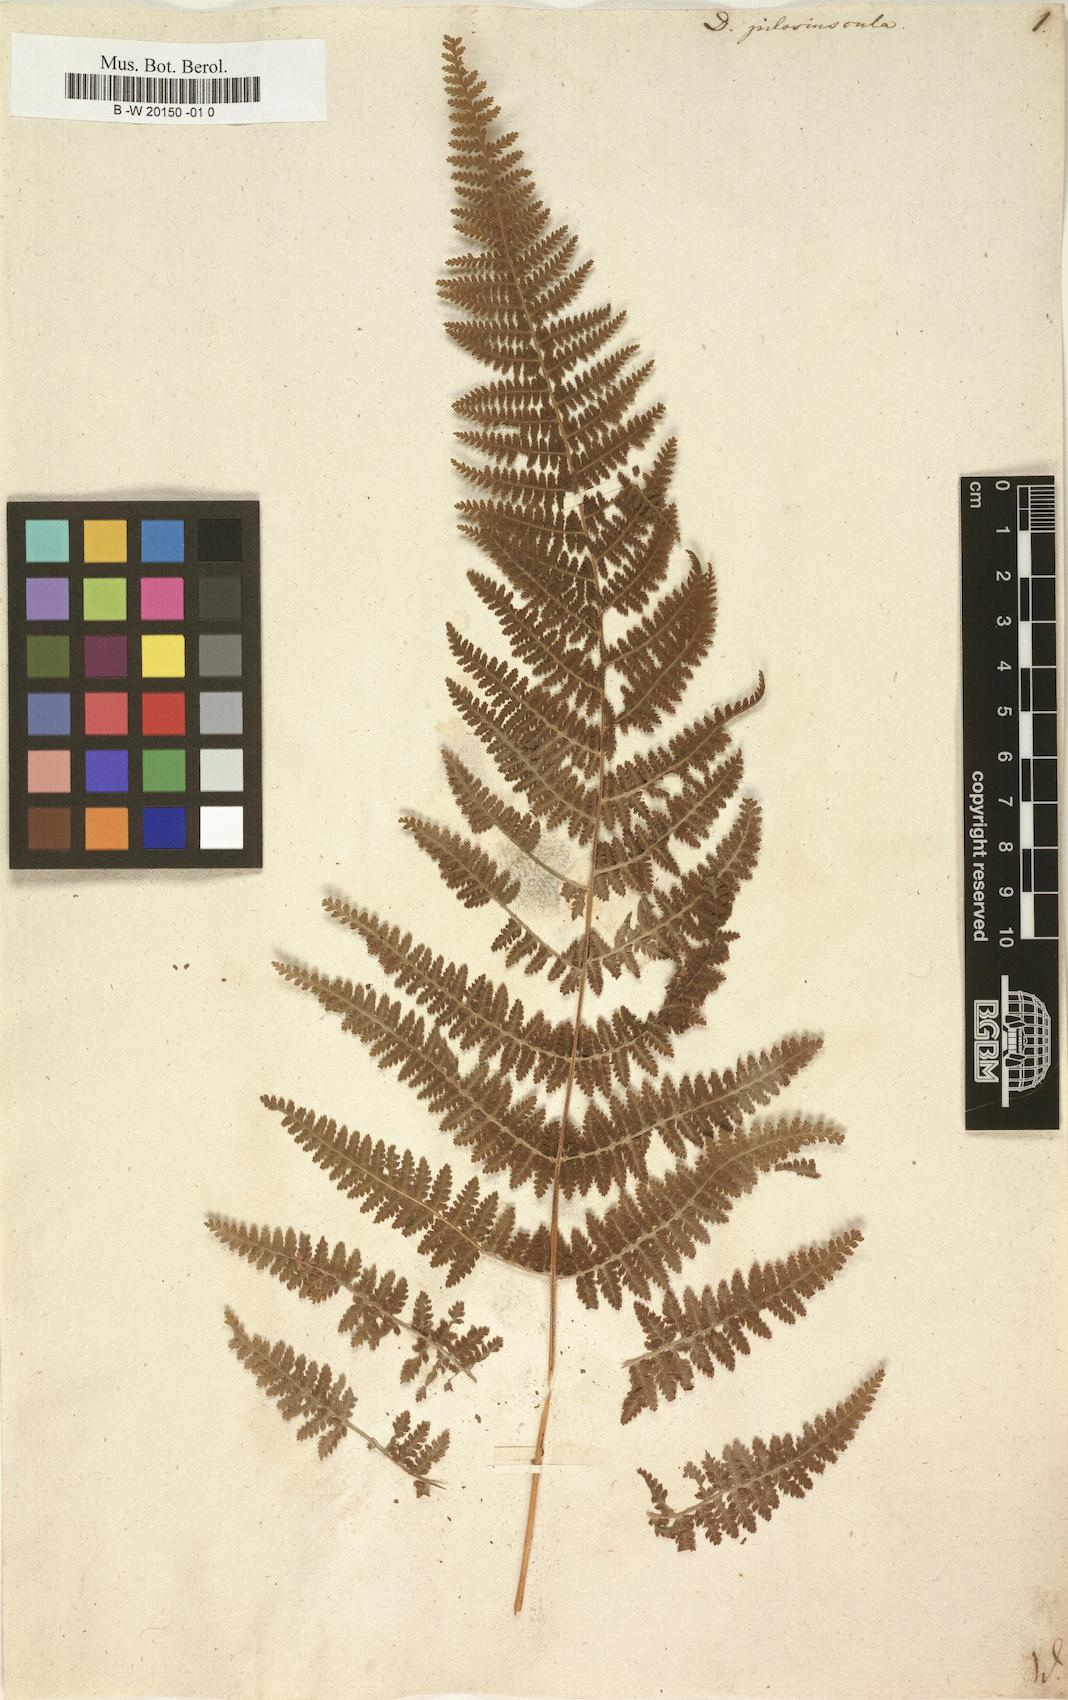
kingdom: Plantae
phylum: Tracheophyta
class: Polypodiopsida
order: Polypodiales
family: Dennstaedtiaceae
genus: Sitobolium
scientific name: Sitobolium punctilobum
